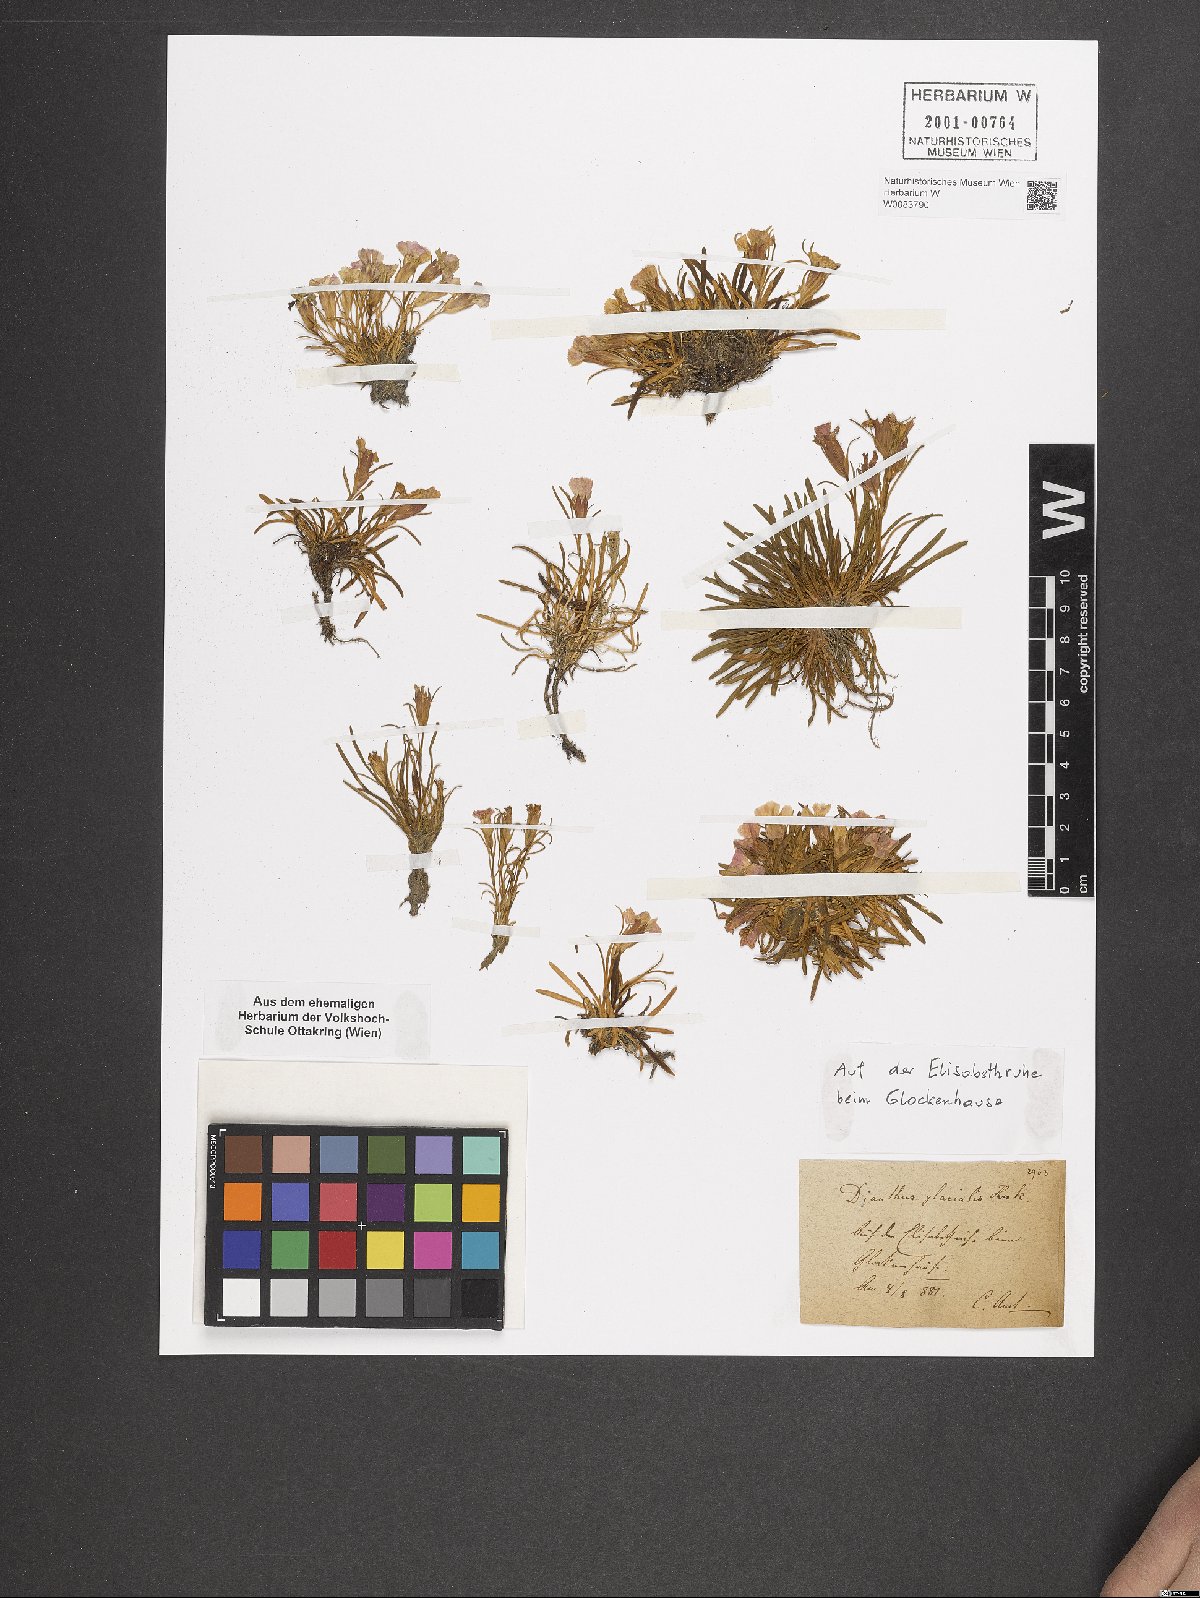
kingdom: Plantae
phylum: Tracheophyta
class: Magnoliopsida
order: Caryophyllales
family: Caryophyllaceae
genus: Dianthus
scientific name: Dianthus glacialis
